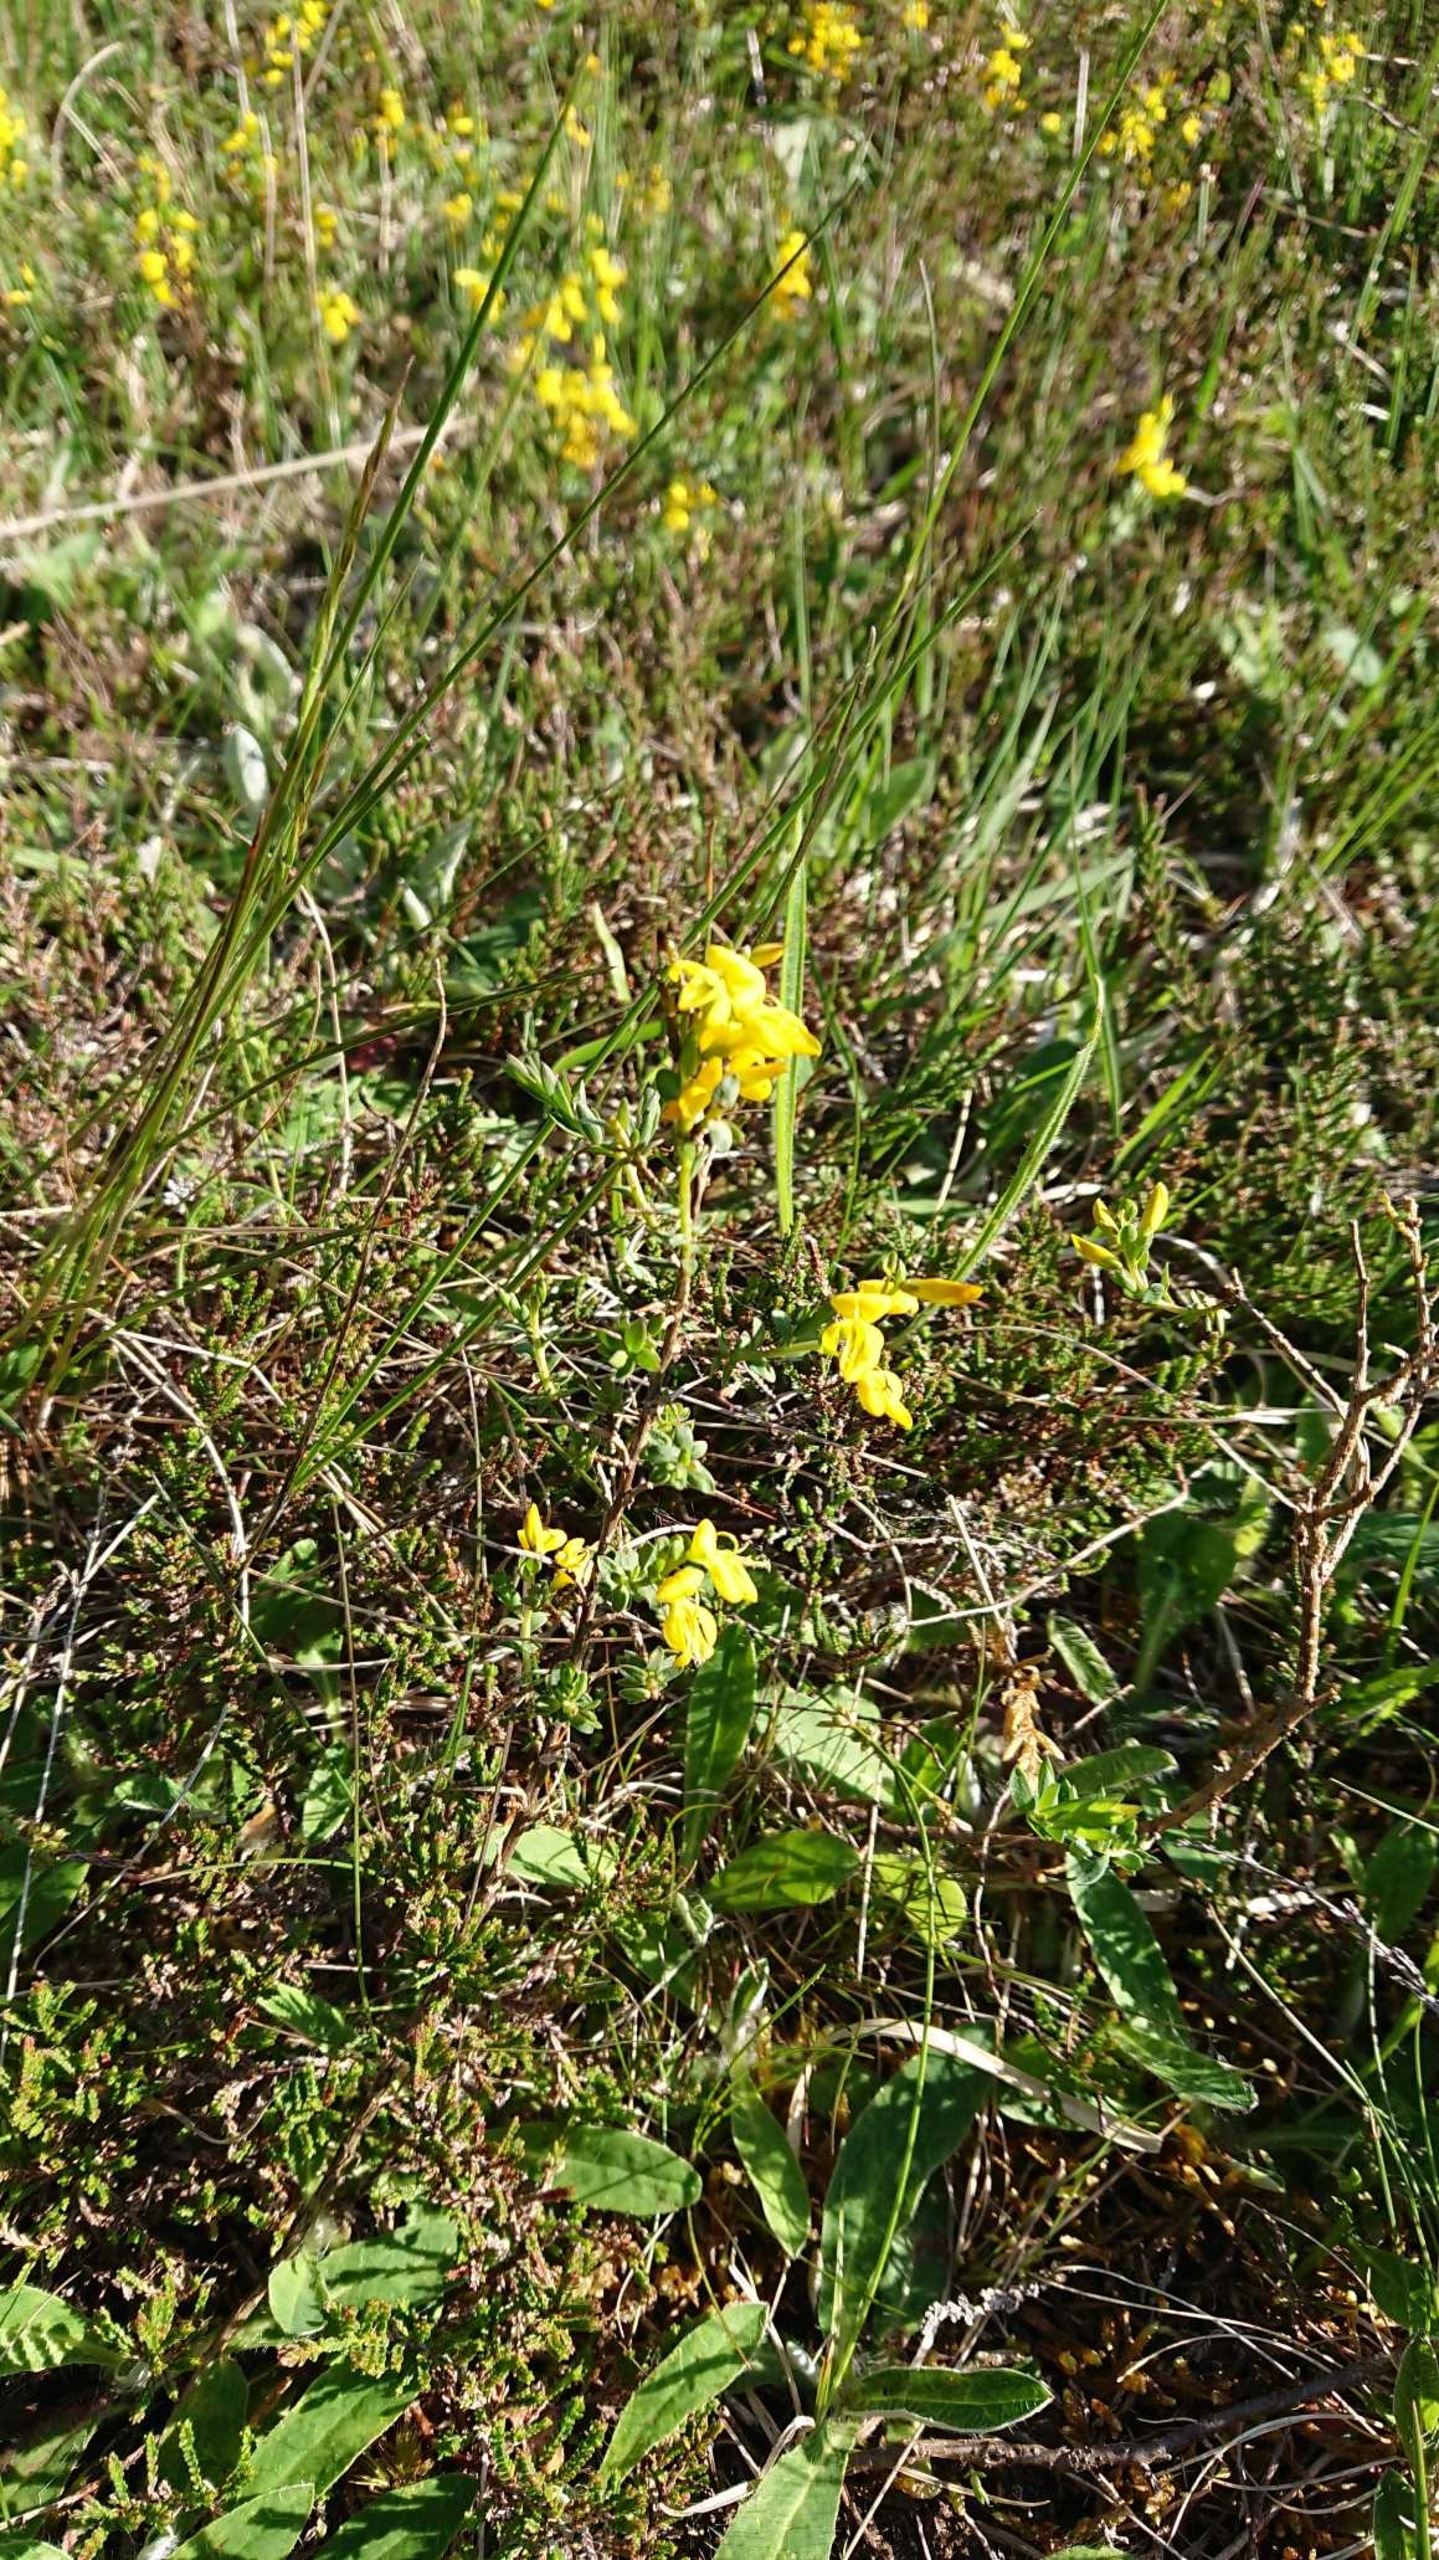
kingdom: Plantae
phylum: Tracheophyta
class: Magnoliopsida
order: Fabales
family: Fabaceae
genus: Genista
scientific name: Genista anglica
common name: Engelsk visse
